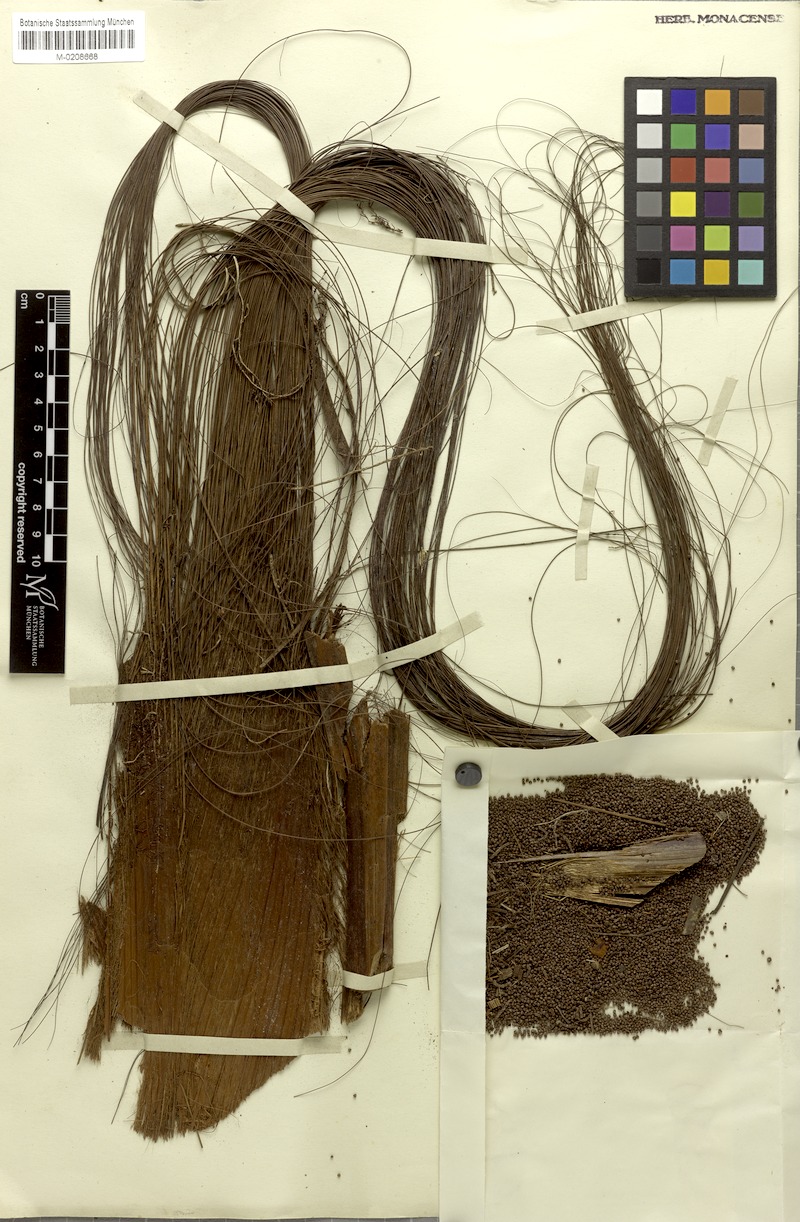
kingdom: Plantae
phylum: Tracheophyta
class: Liliopsida
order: Arecales
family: Arecaceae
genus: Leopoldinia
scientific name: Leopoldinia piassaba
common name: Piassaba
